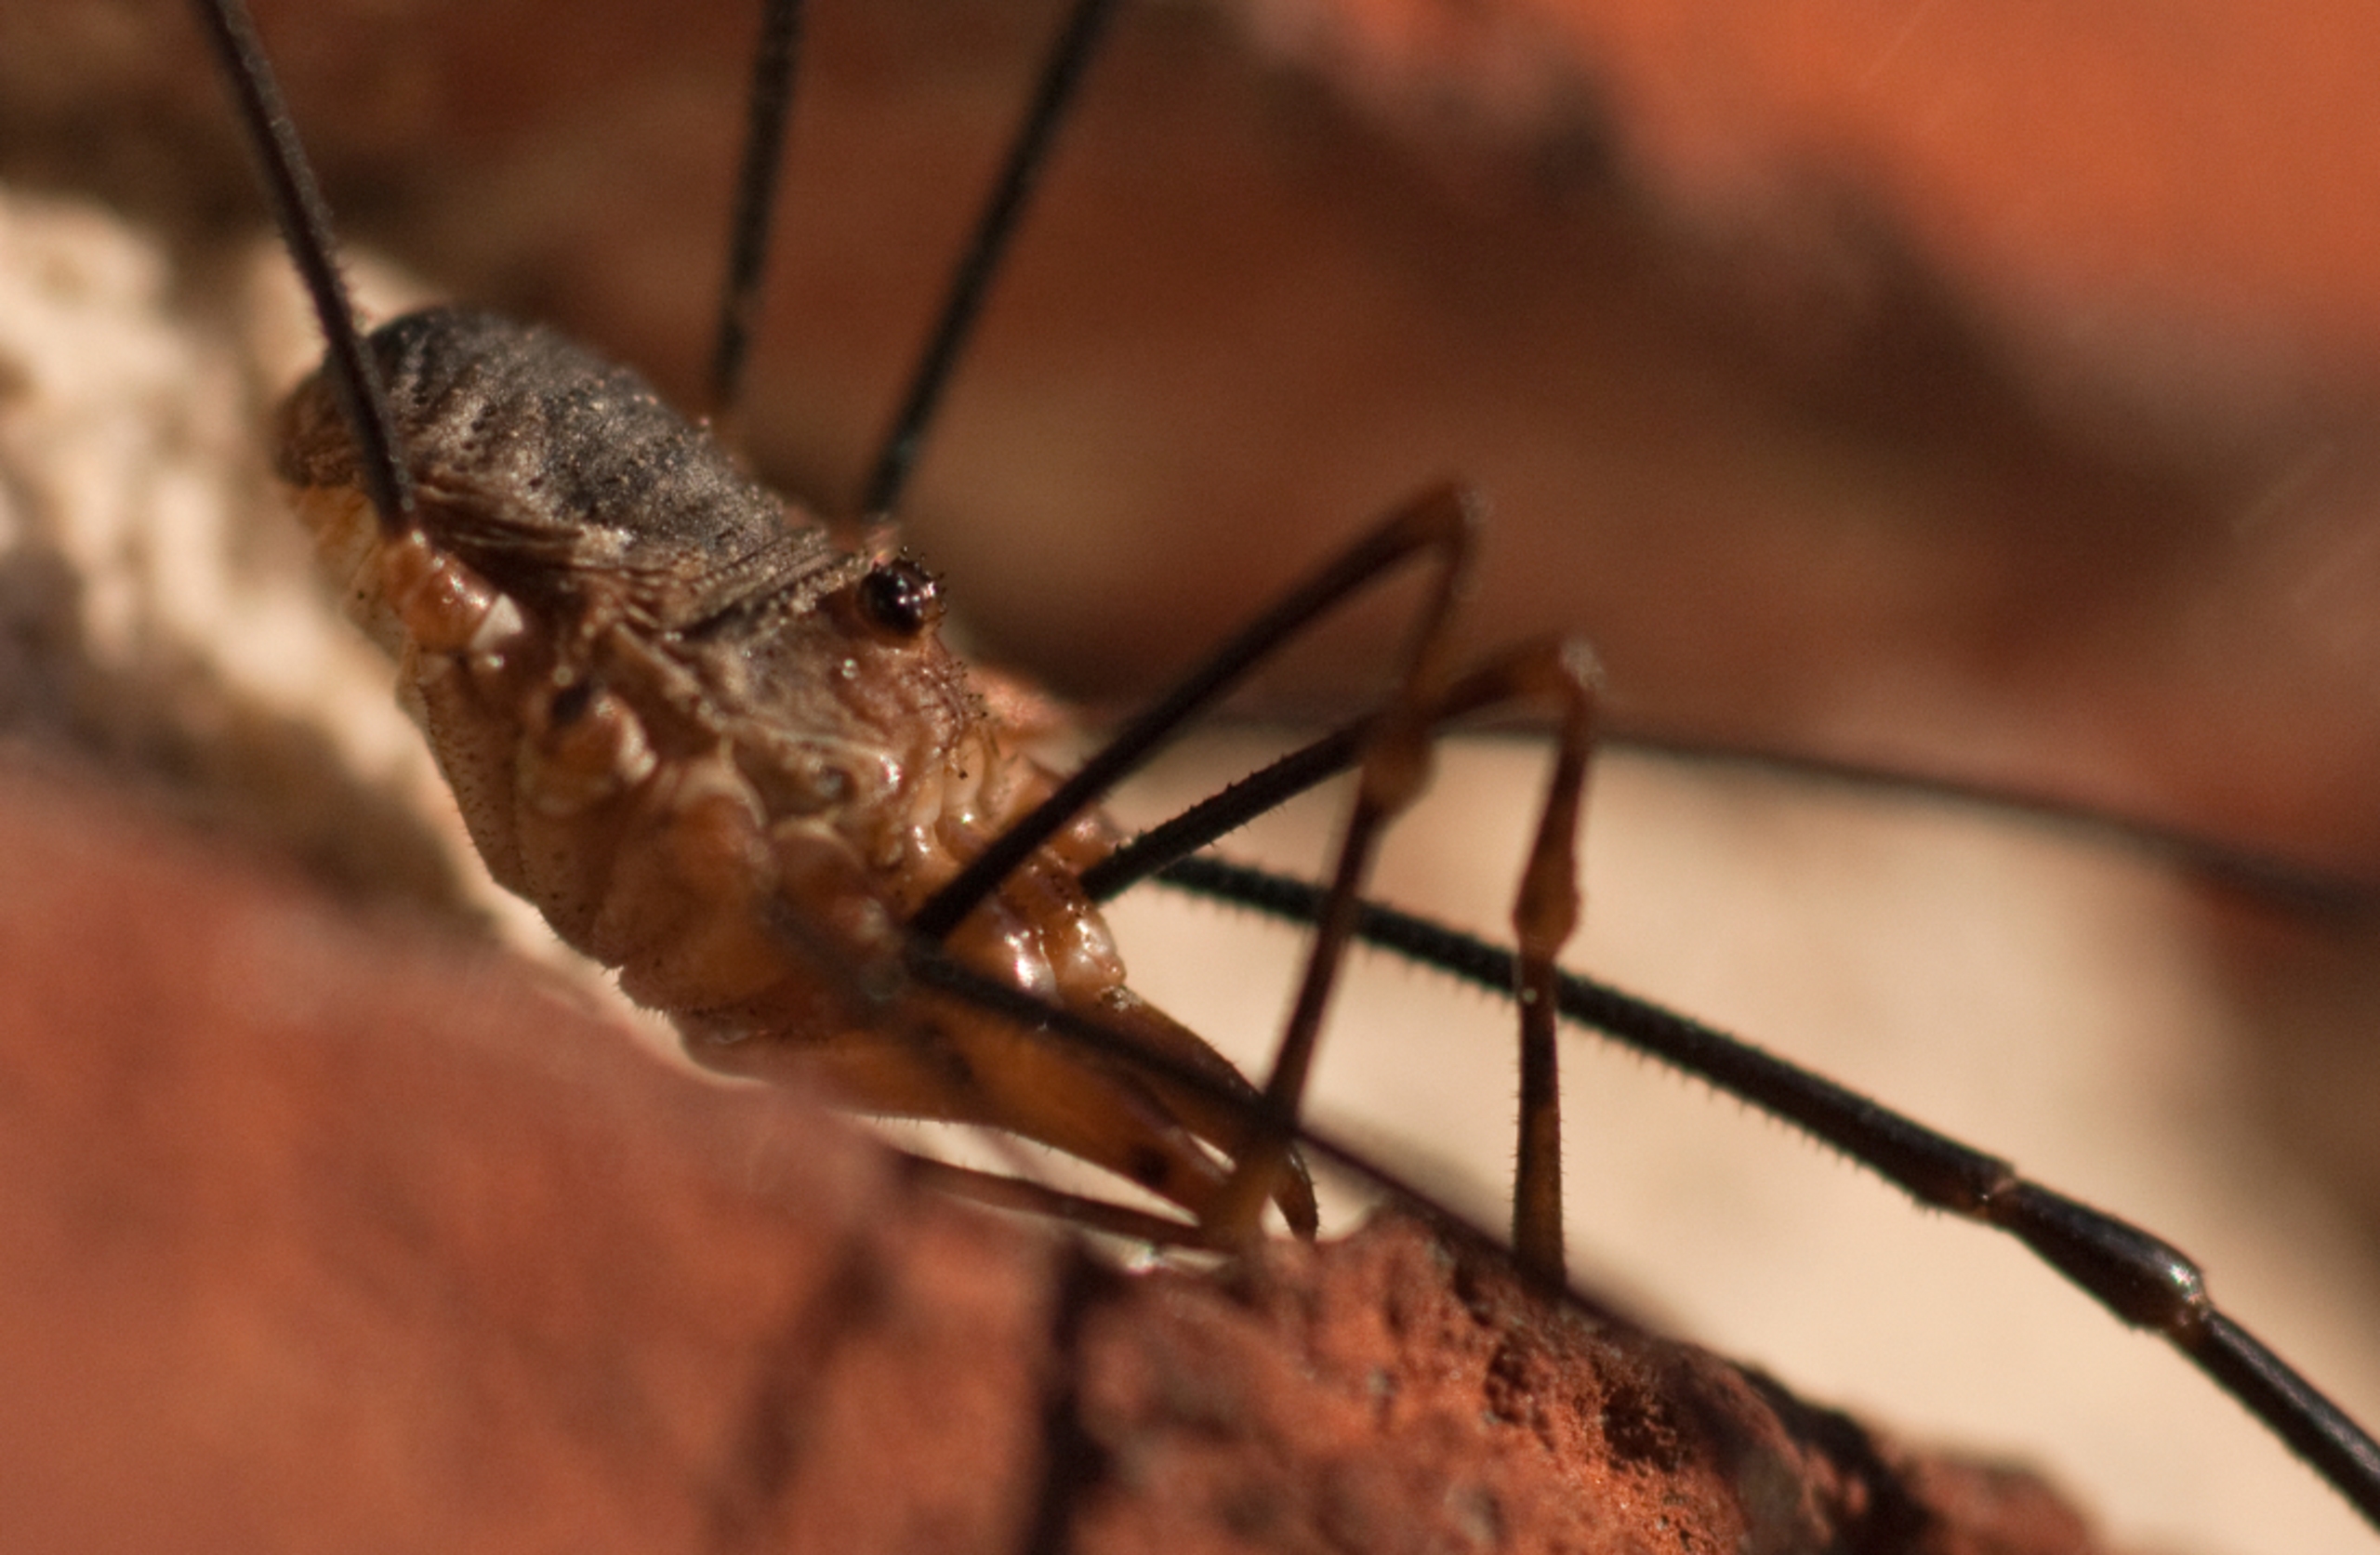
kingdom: Animalia
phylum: Arthropoda
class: Arachnida
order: Opiliones
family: Phalangiidae
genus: Phalangium
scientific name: Phalangium opilio
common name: Hornmejer
